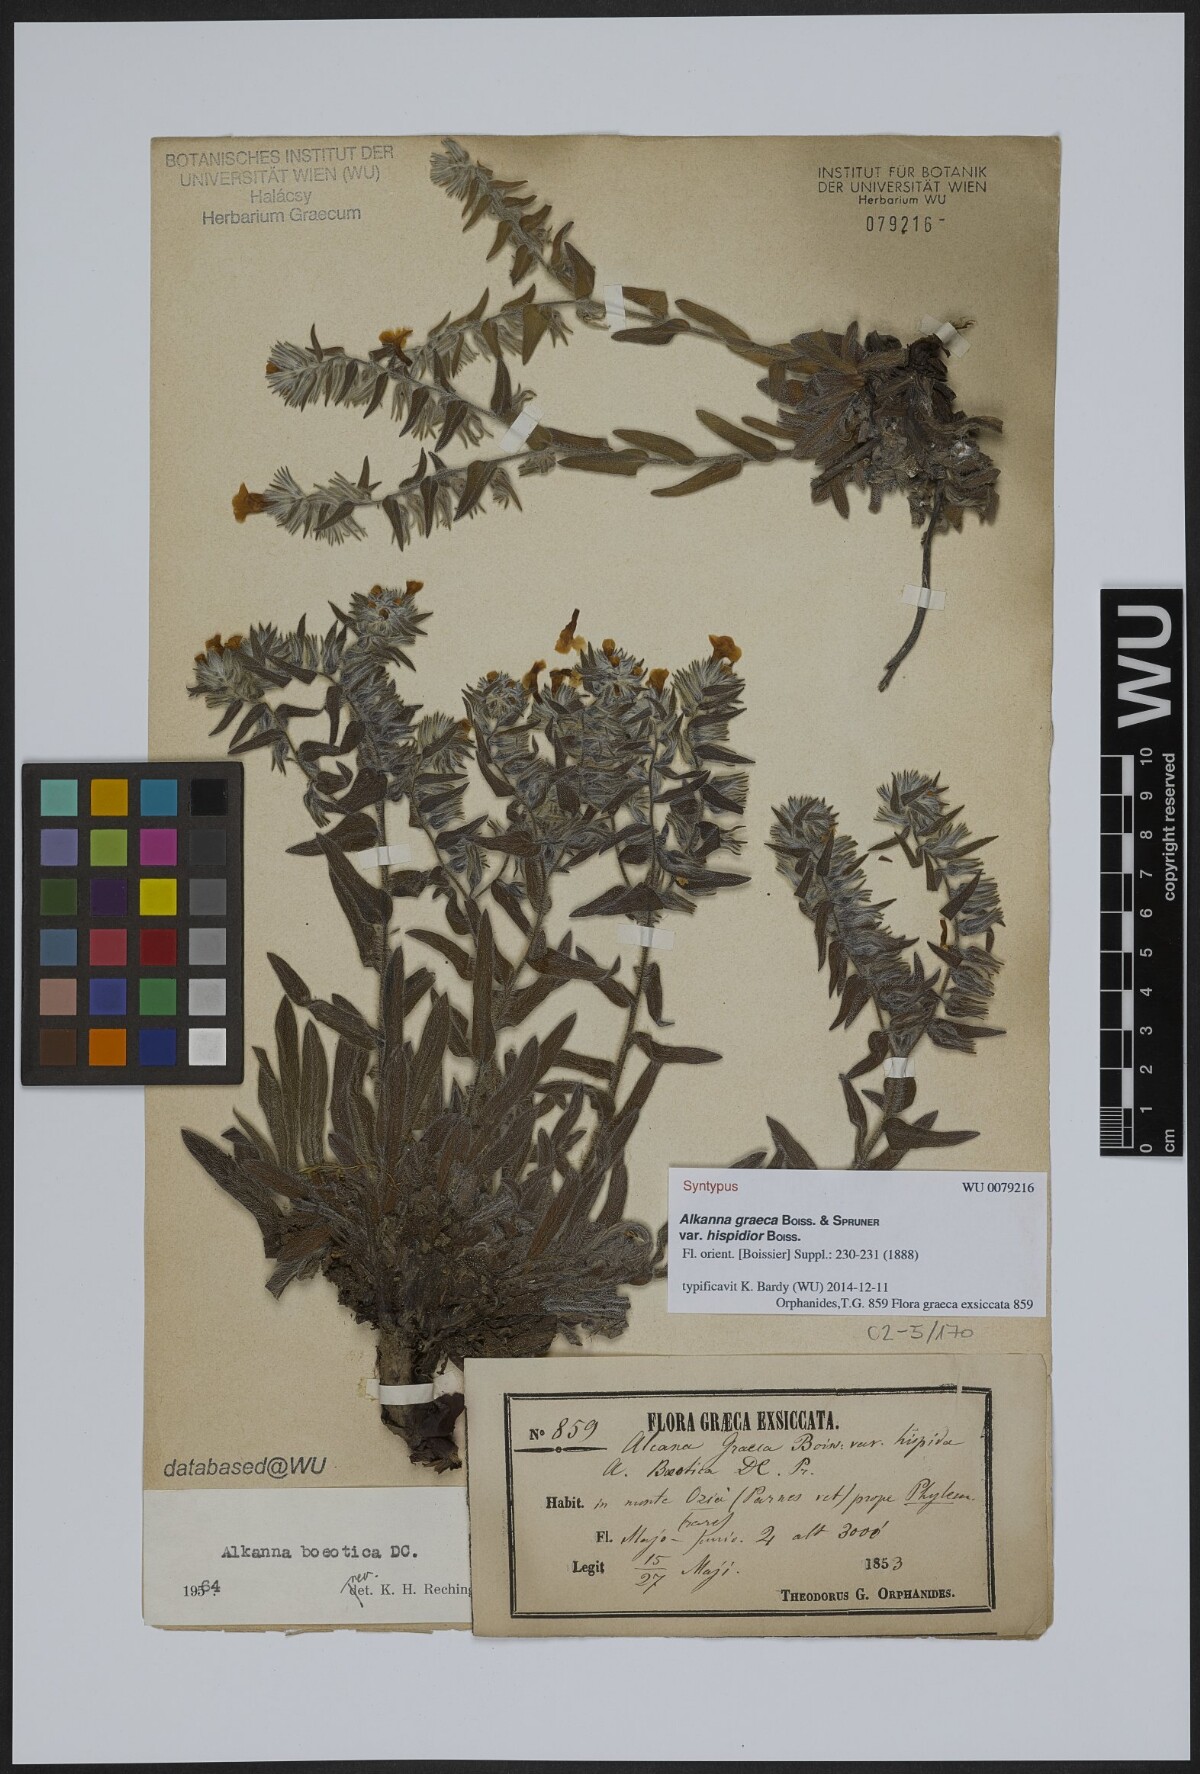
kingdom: Plantae
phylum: Tracheophyta
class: Magnoliopsida
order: Boraginales
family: Boraginaceae
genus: Alkanna
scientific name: Alkanna graeca
